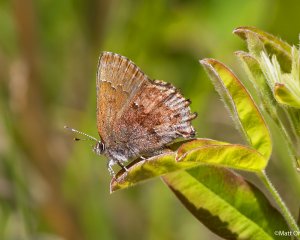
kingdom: Animalia
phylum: Arthropoda
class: Insecta
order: Lepidoptera
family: Lycaenidae
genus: Thecla
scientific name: Thecla irus
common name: Frosted Elfin
